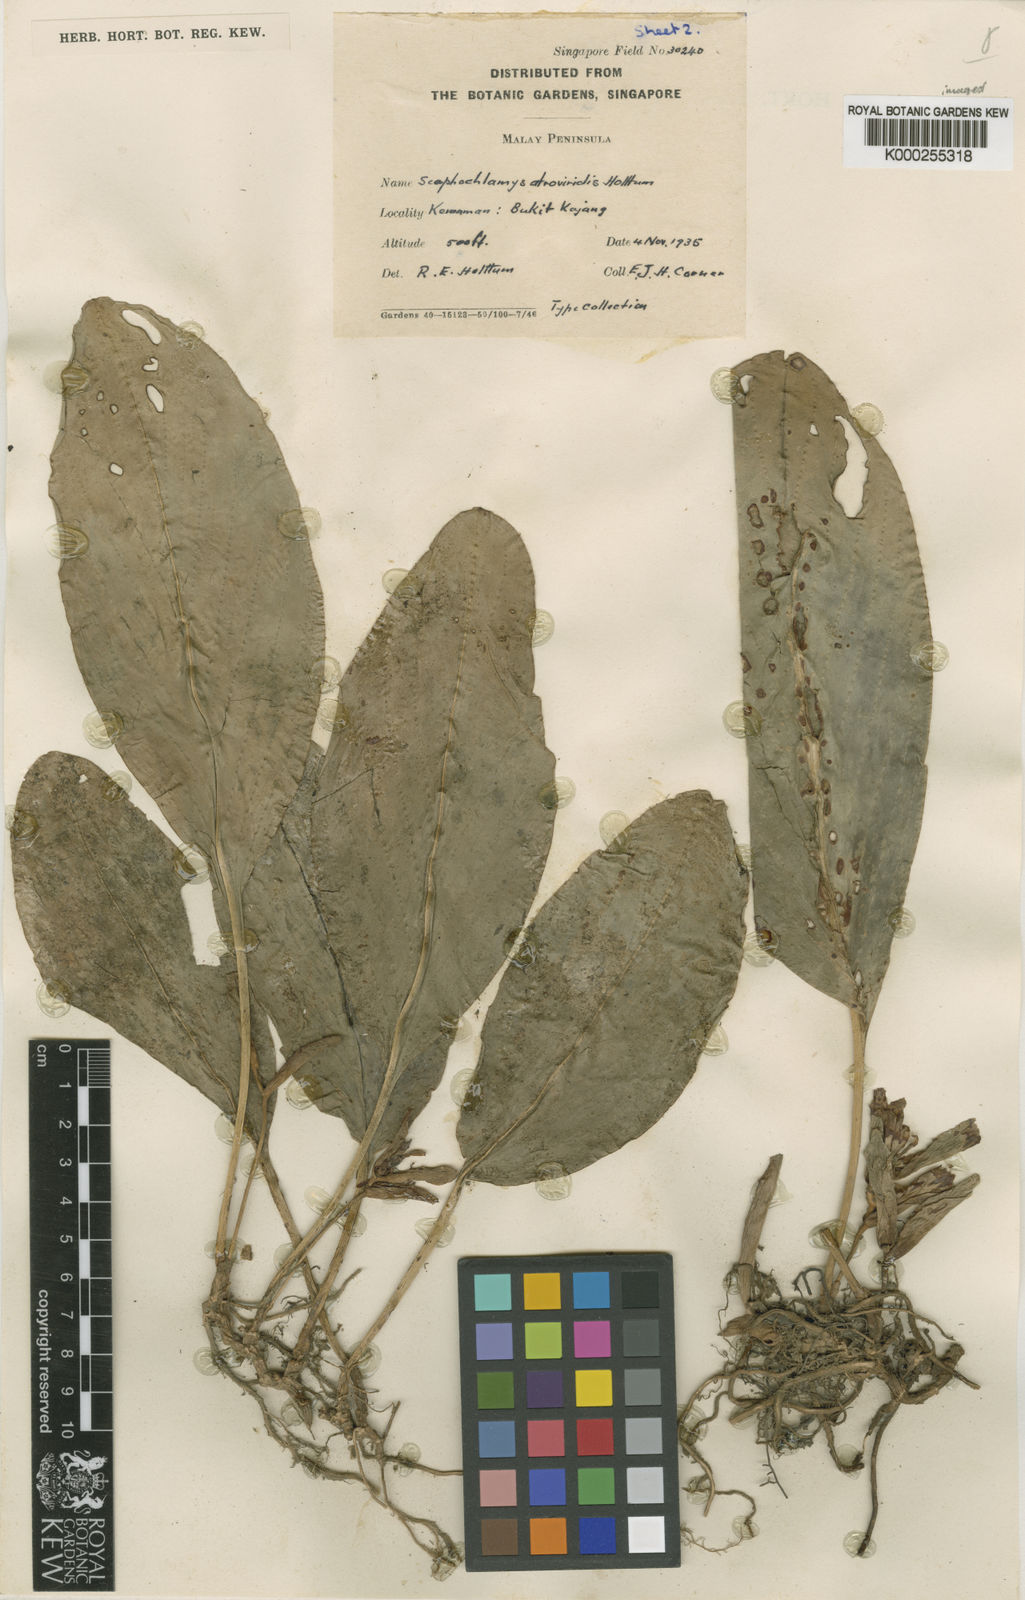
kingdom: Plantae
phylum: Tracheophyta
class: Liliopsida
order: Zingiberales
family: Zingiberaceae
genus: Scaphochlamys
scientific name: Scaphochlamys atroviridis
